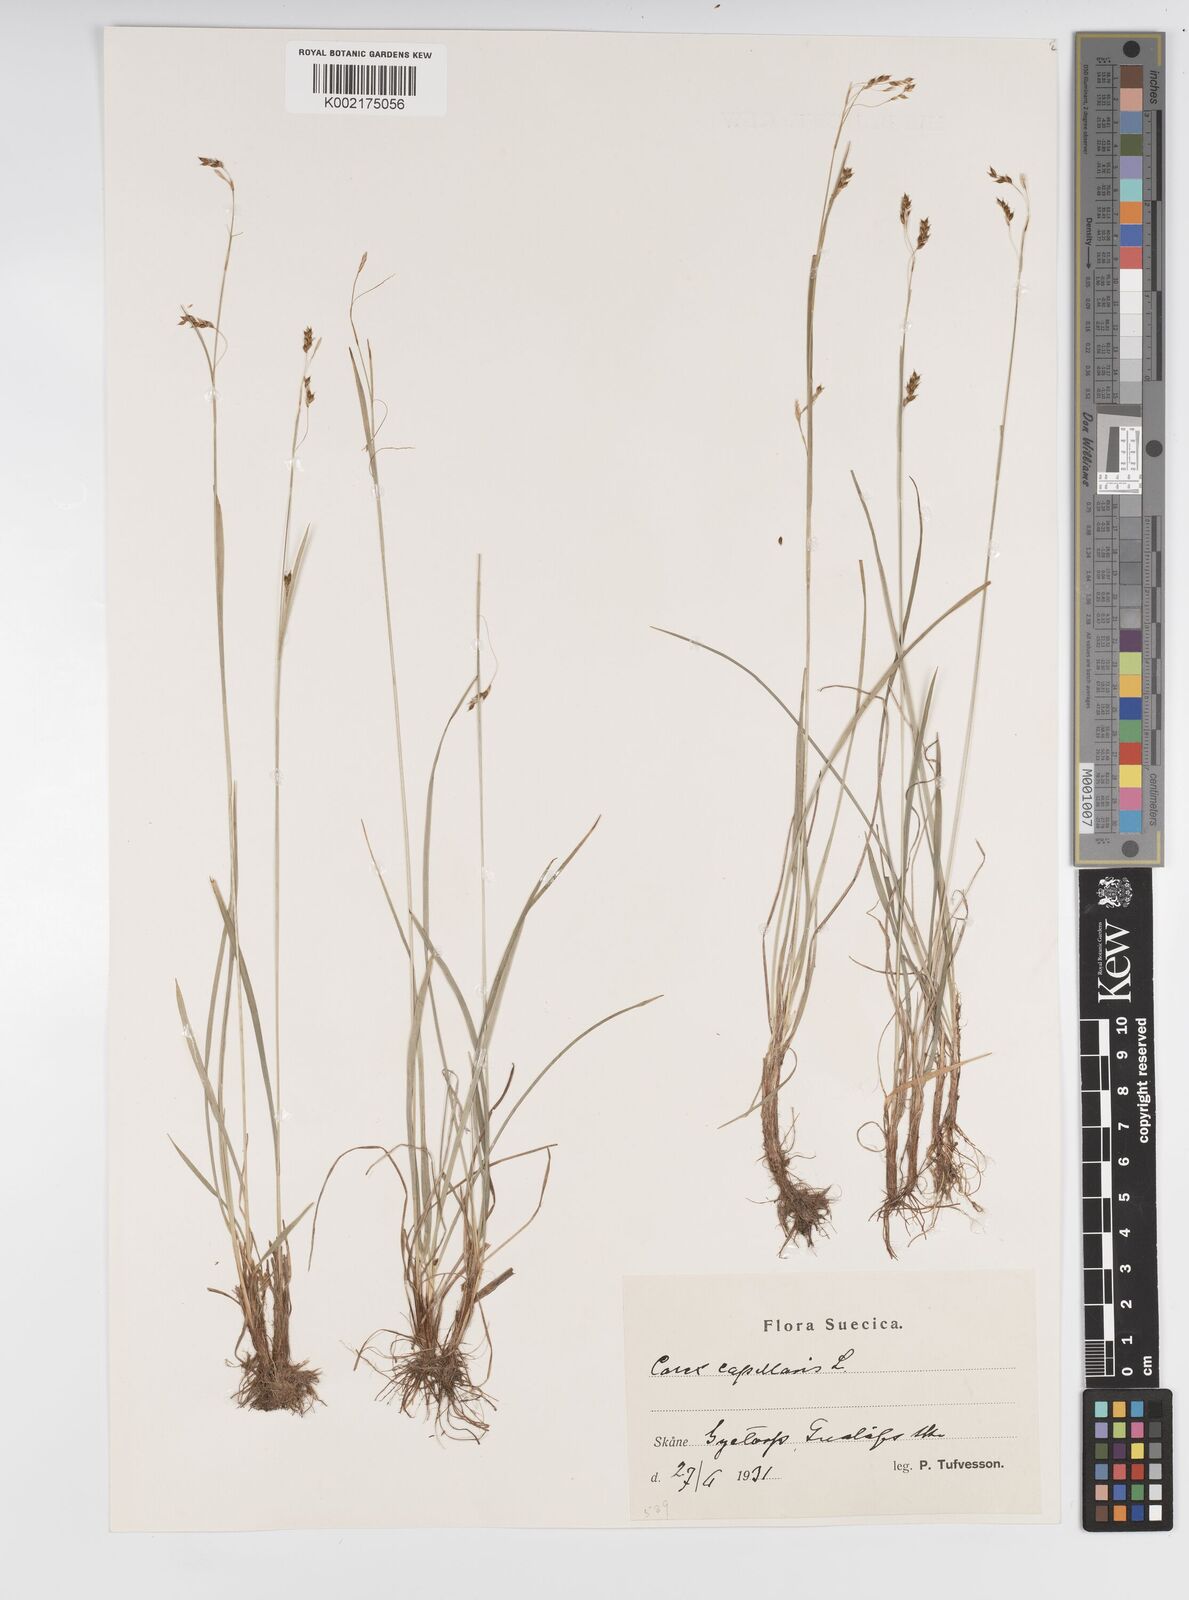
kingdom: Plantae
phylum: Tracheophyta
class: Liliopsida
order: Poales
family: Cyperaceae
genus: Carex
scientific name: Carex capillaris
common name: Hair sedge
